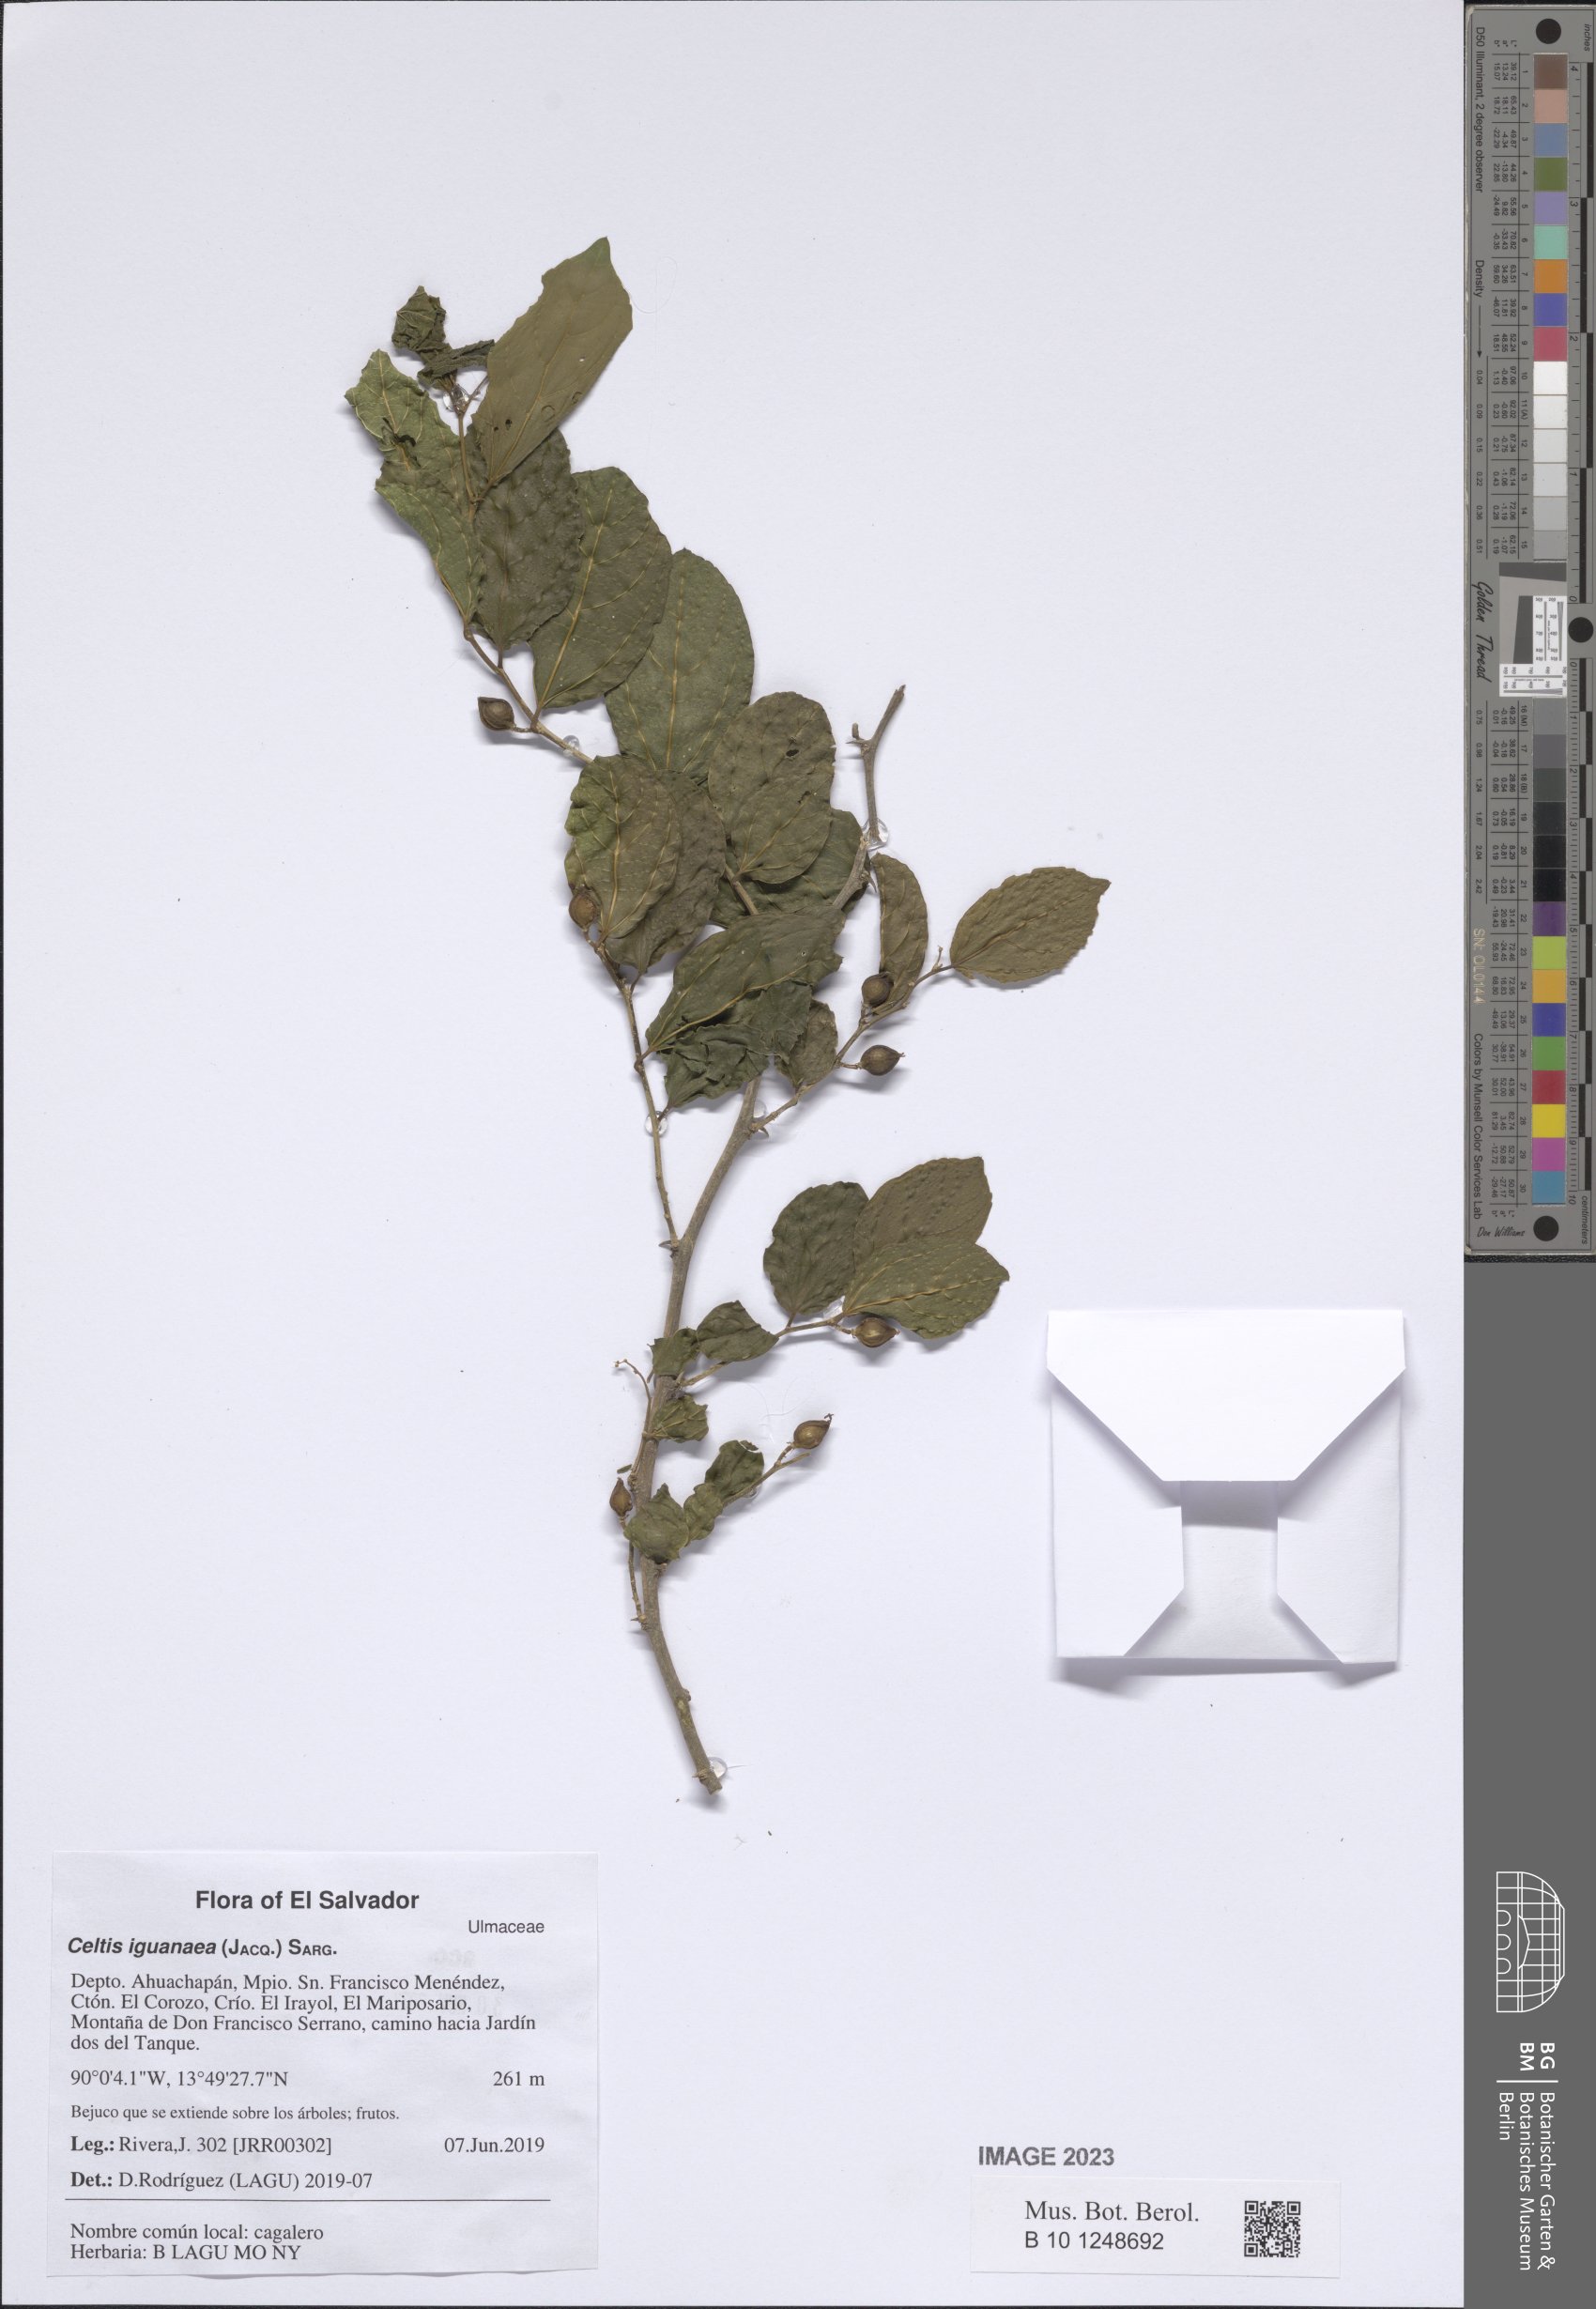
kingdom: Plantae
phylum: Tracheophyta
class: Magnoliopsida
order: Rosales
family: Cannabaceae
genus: Celtis
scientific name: Celtis iguanaea
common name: Iguana hackberry
